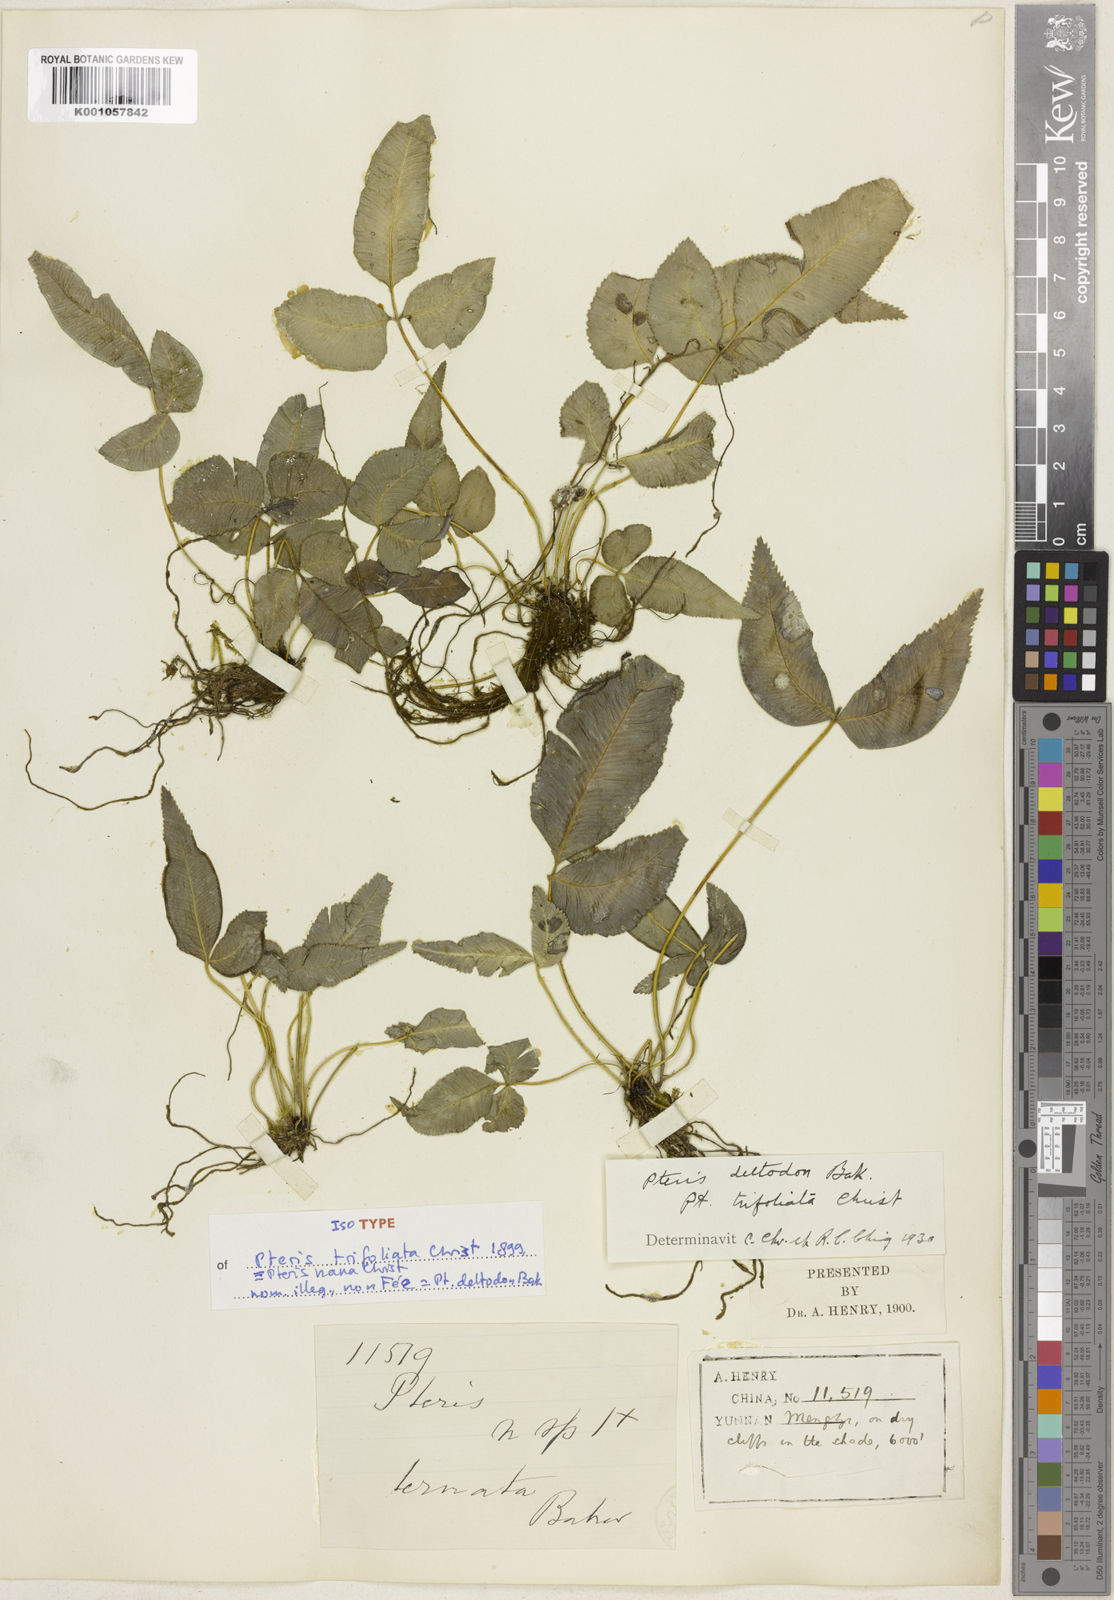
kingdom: Plantae
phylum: Tracheophyta
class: Polypodiopsida
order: Polypodiales
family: Pteridaceae
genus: Pteris
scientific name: Pteris deltodon
